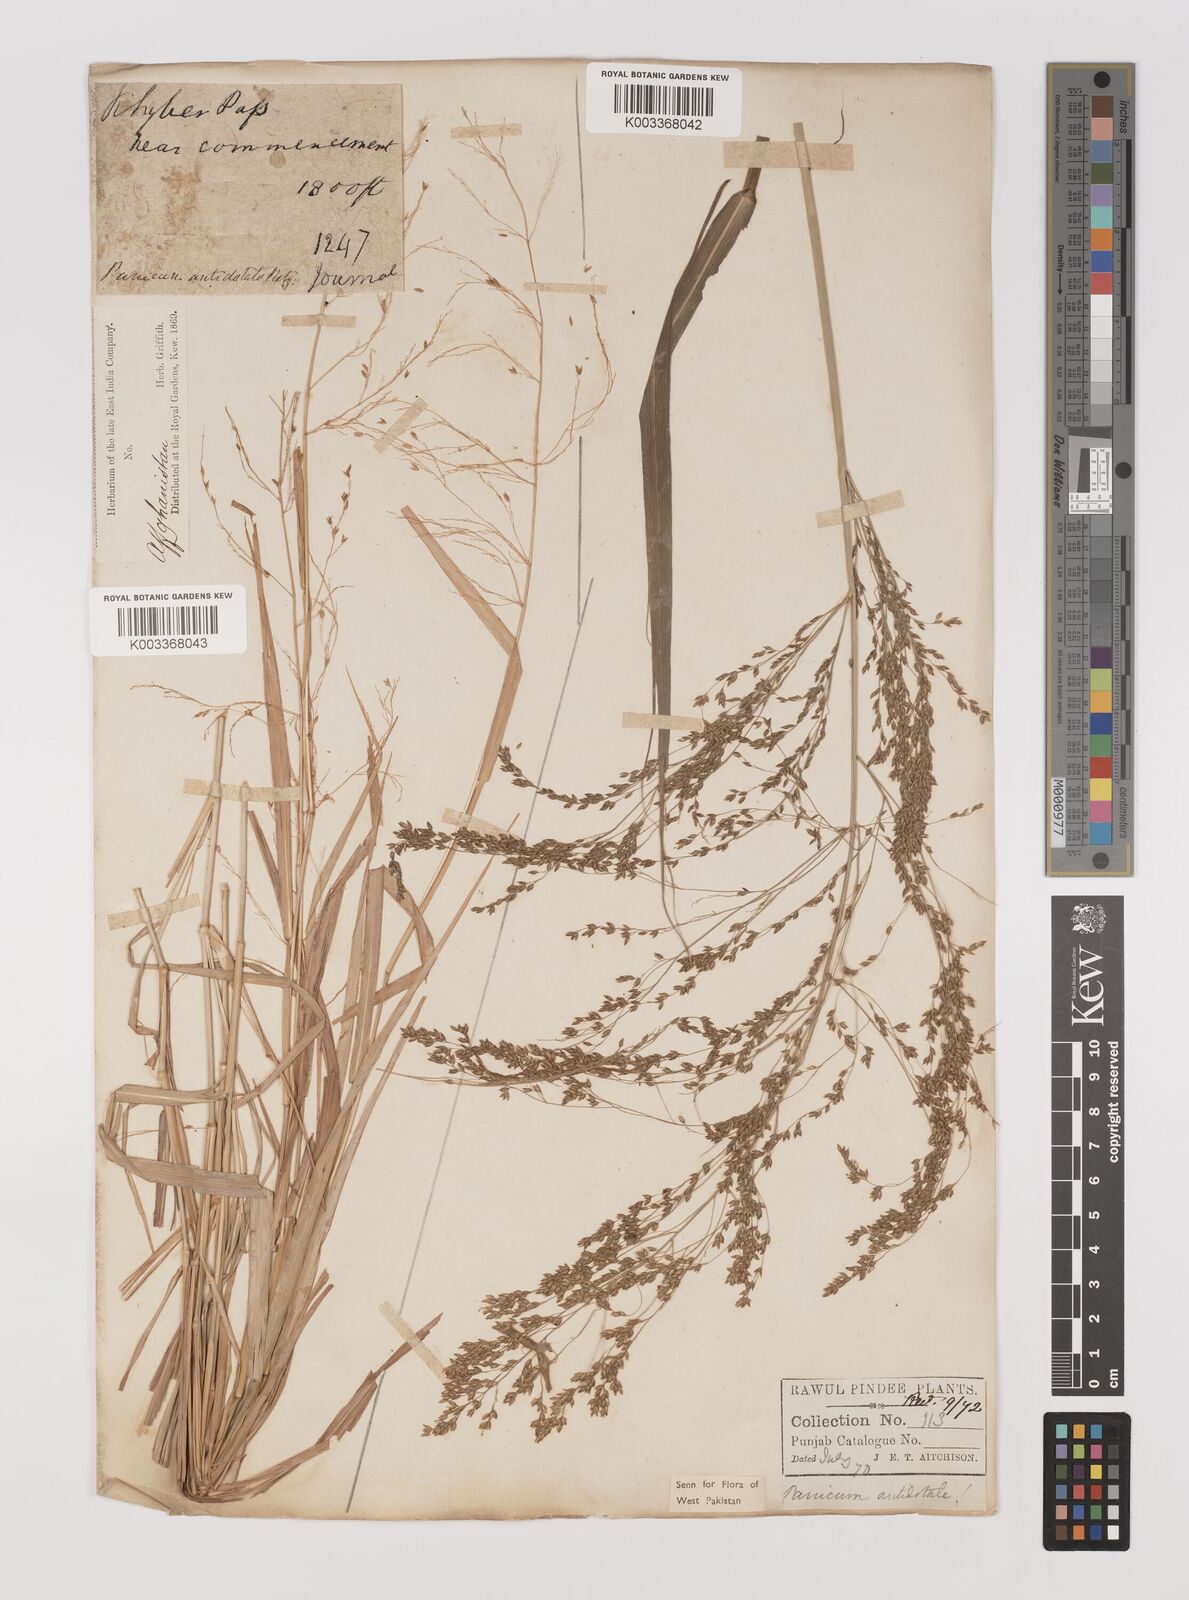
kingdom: Plantae
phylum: Tracheophyta
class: Liliopsida
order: Poales
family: Poaceae
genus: Panicum
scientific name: Panicum antidotale
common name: Blue panicum
